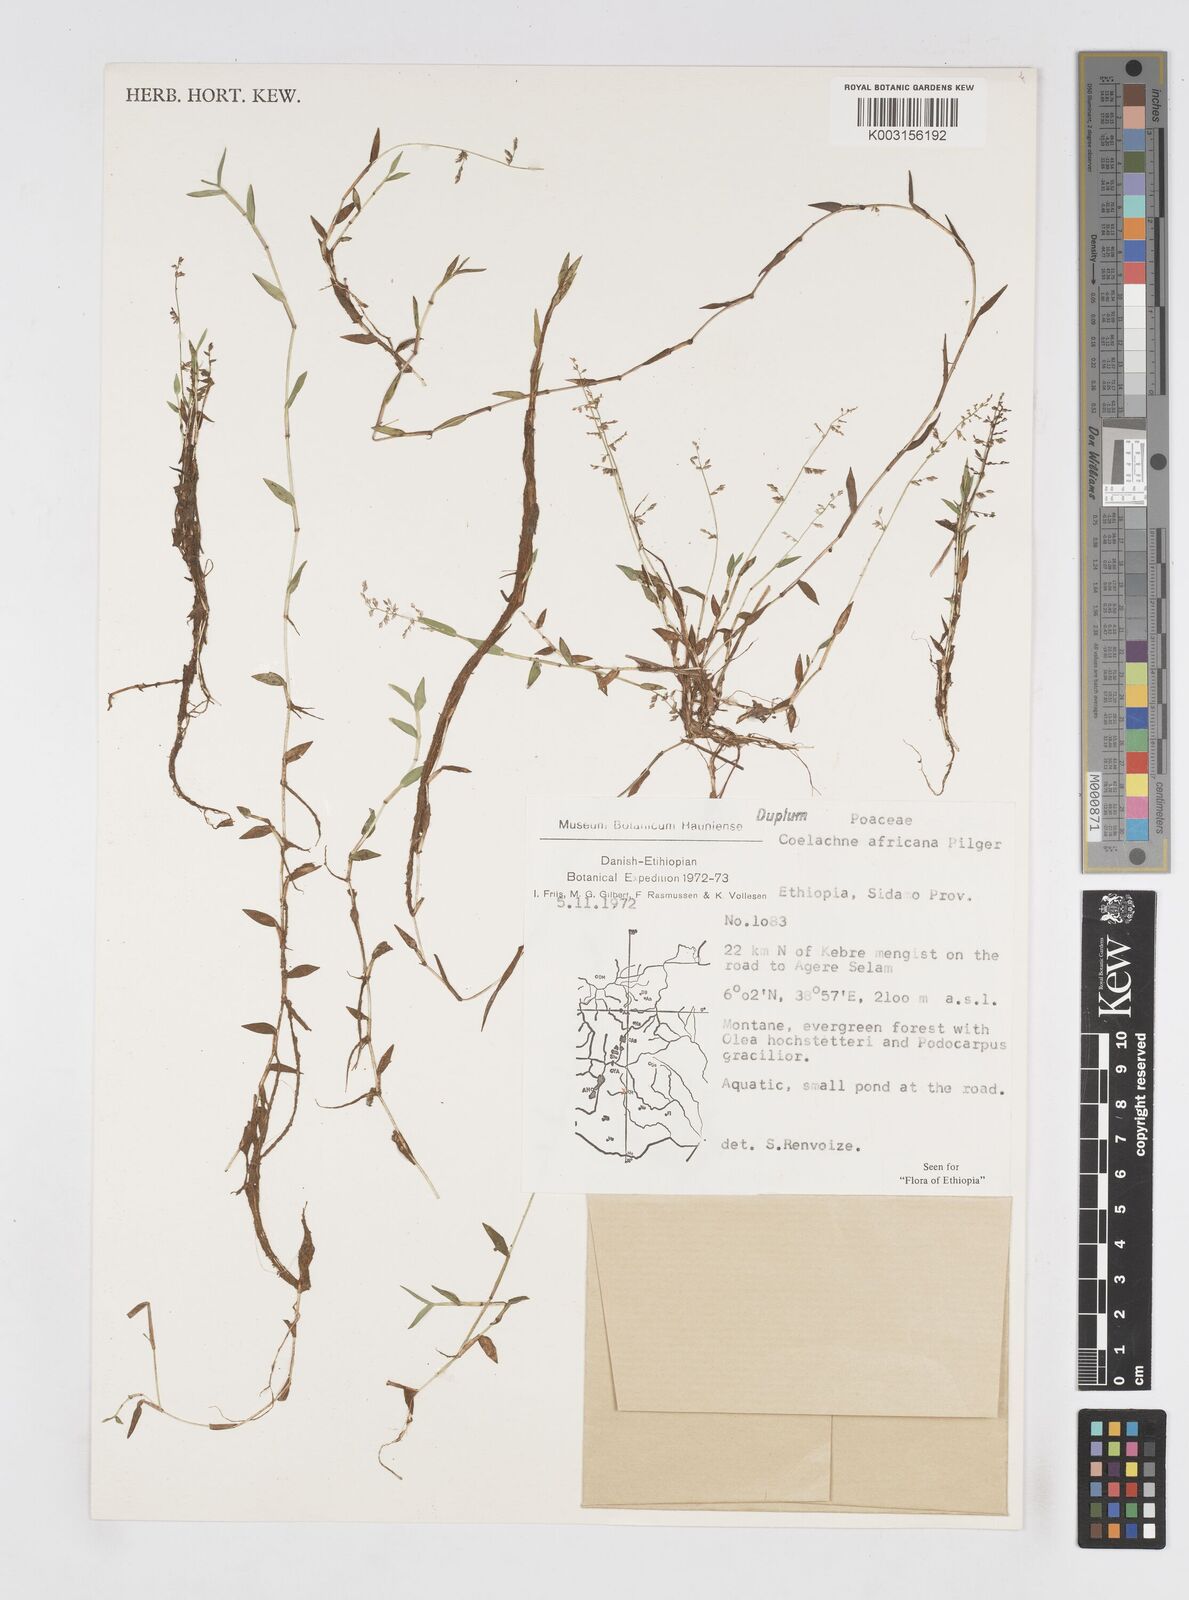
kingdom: Plantae
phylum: Tracheophyta
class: Liliopsida
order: Poales
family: Poaceae
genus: Coelachne
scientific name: Coelachne africana
